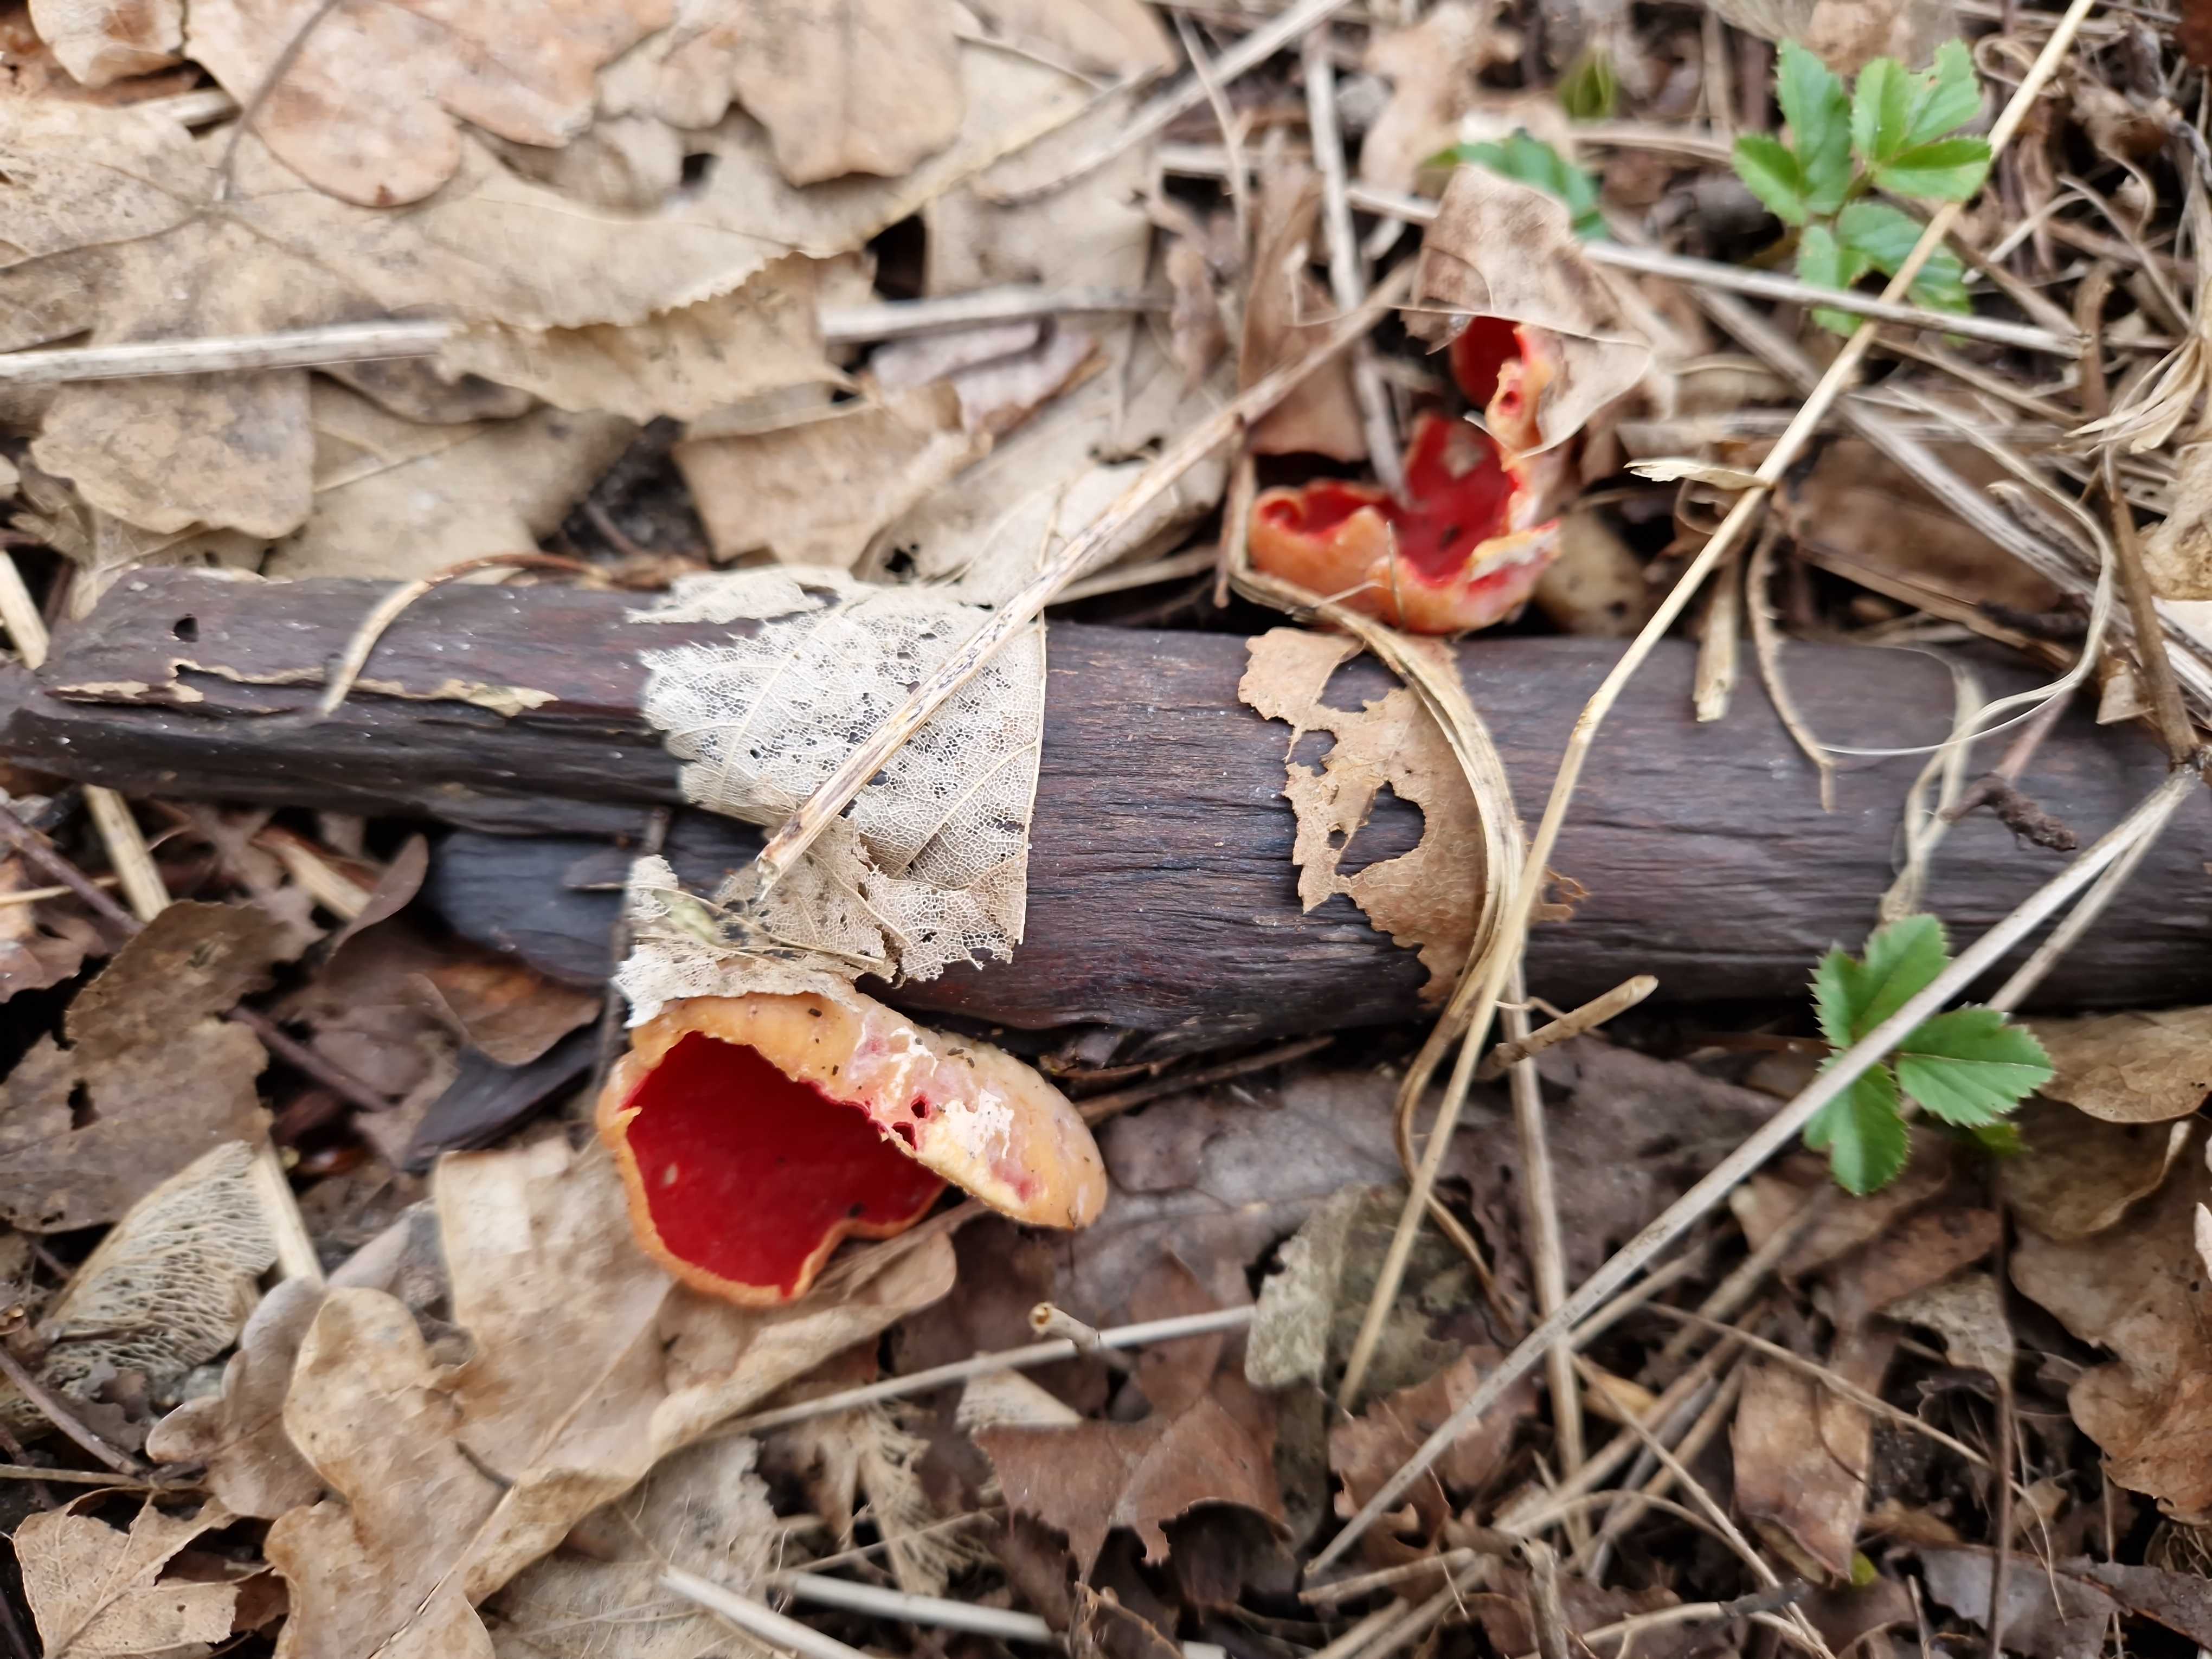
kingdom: Fungi
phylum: Ascomycota
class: Pezizomycetes
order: Pezizales
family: Sarcoscyphaceae
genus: Sarcoscypha
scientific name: Sarcoscypha
